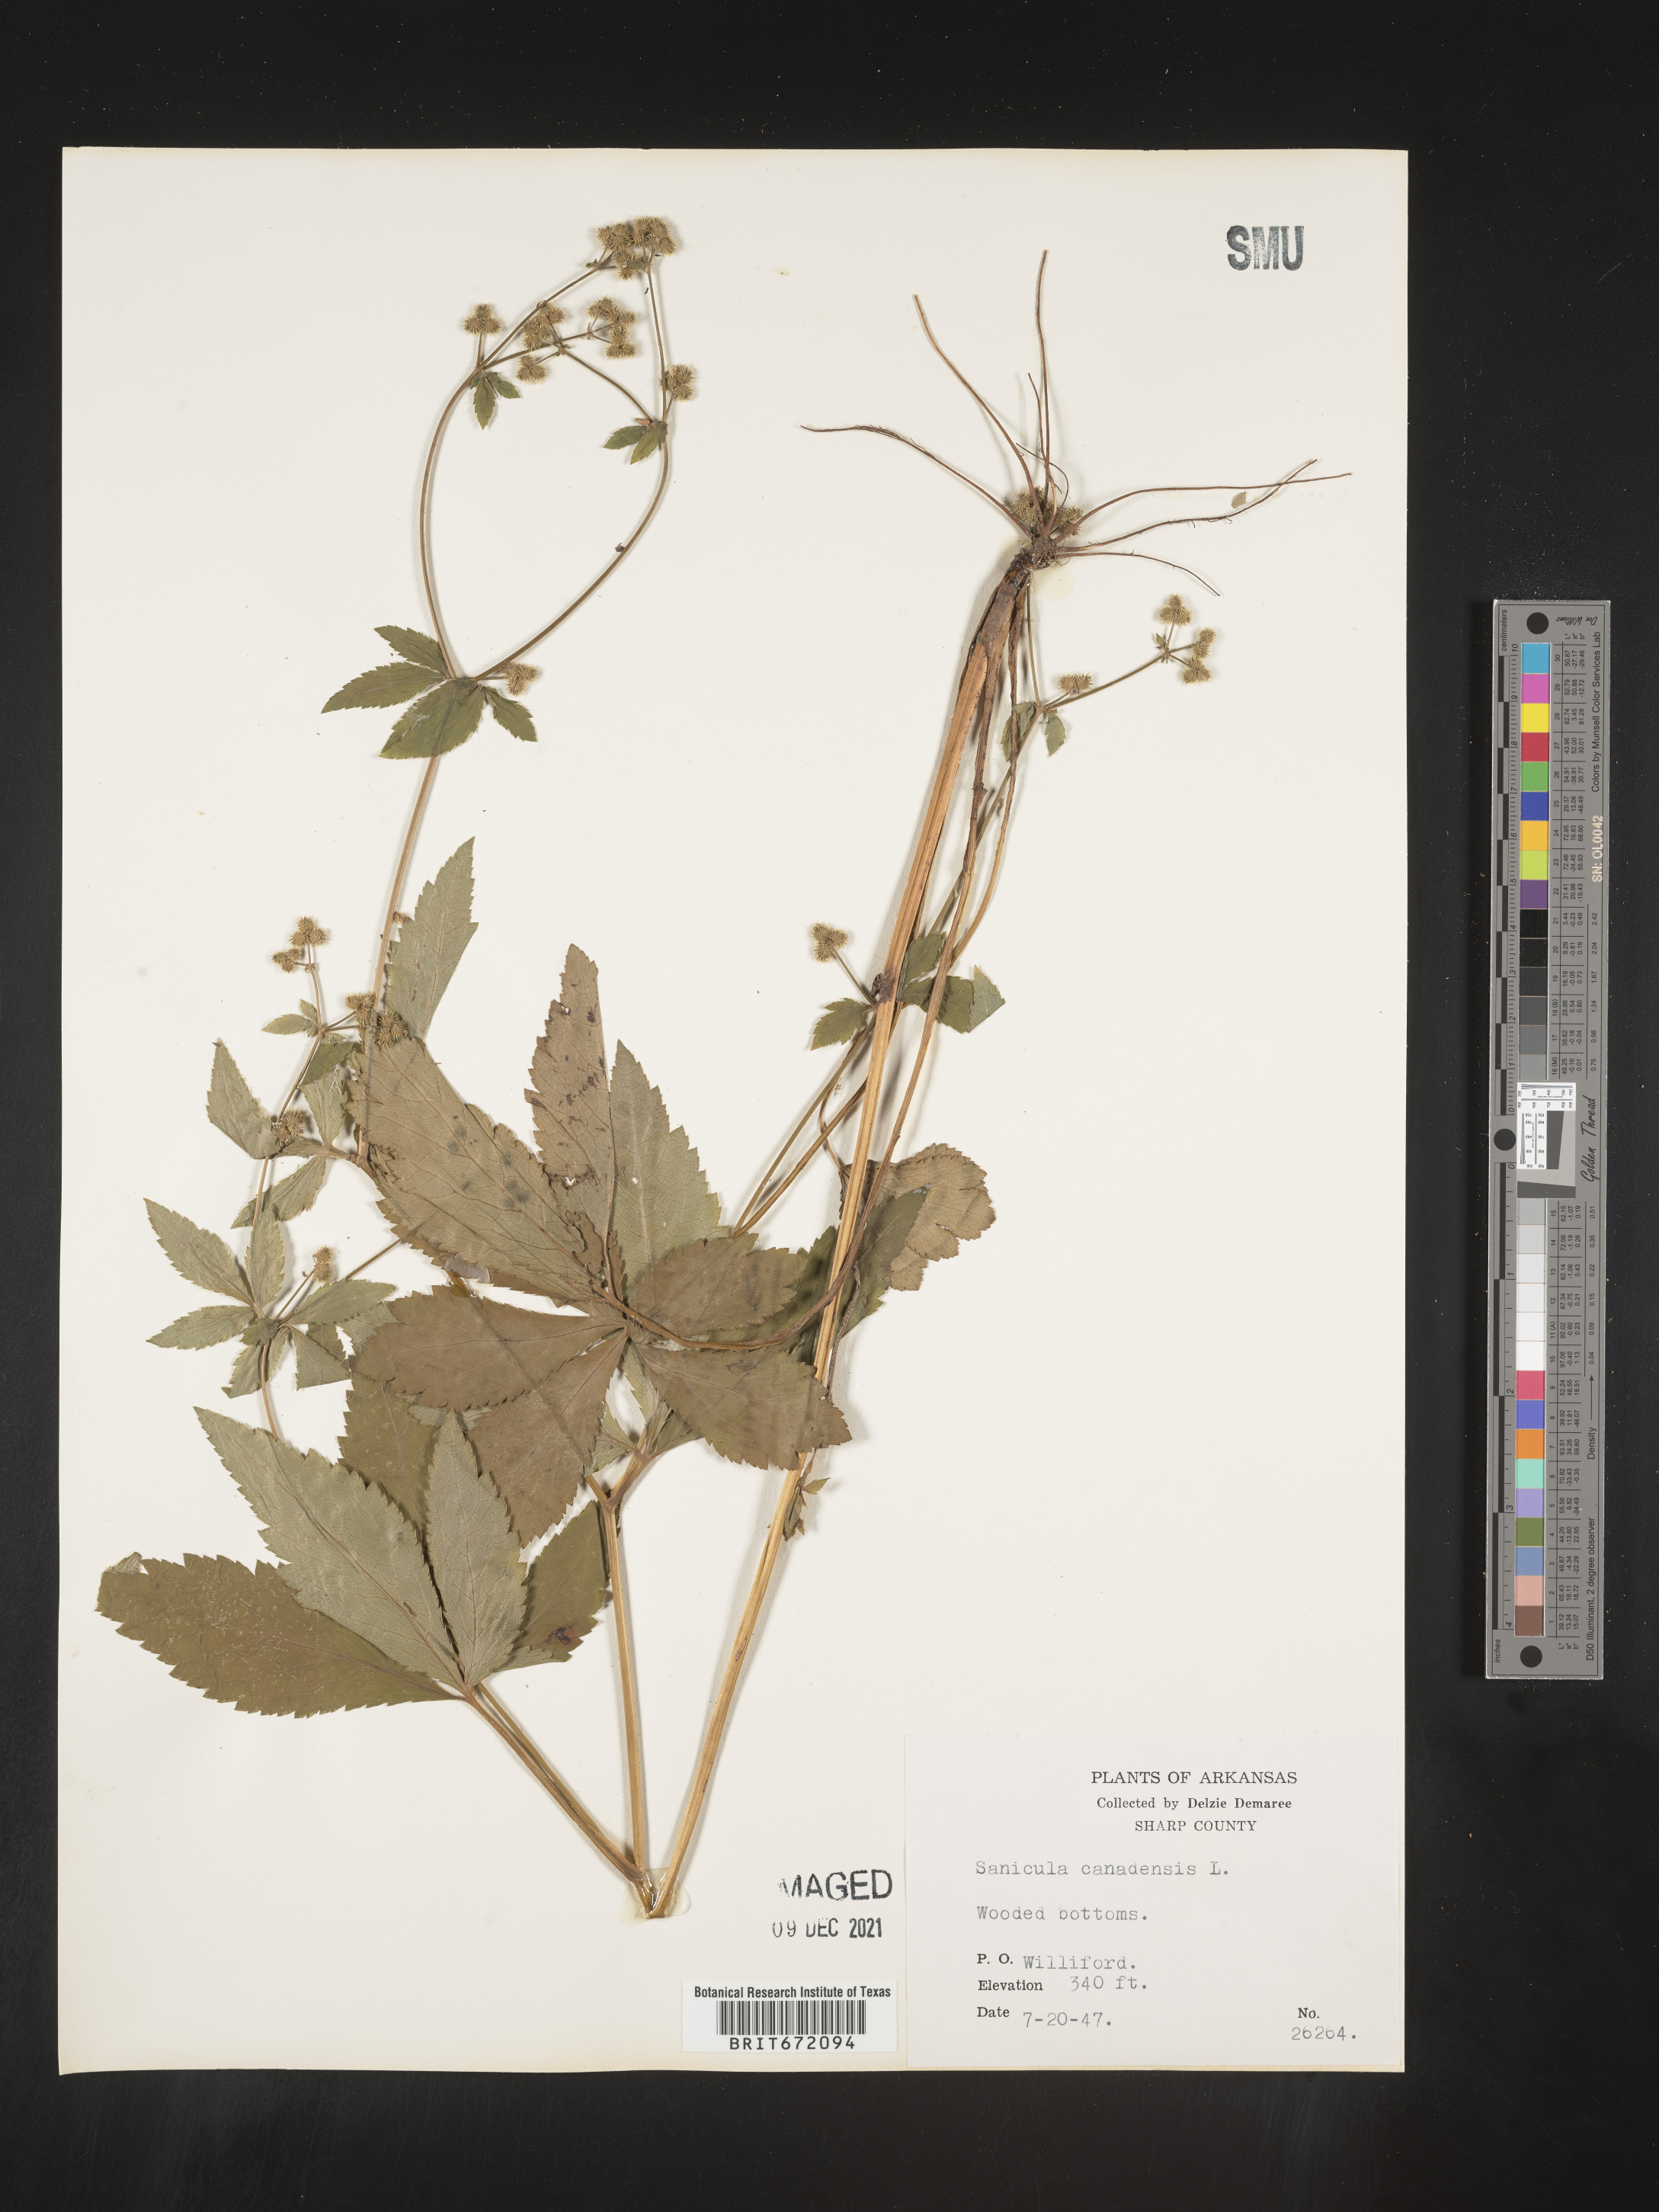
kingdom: Plantae
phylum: Tracheophyta
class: Magnoliopsida
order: Apiales
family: Apiaceae
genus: Sanicula
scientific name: Sanicula canadensis
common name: Canada sanicle
